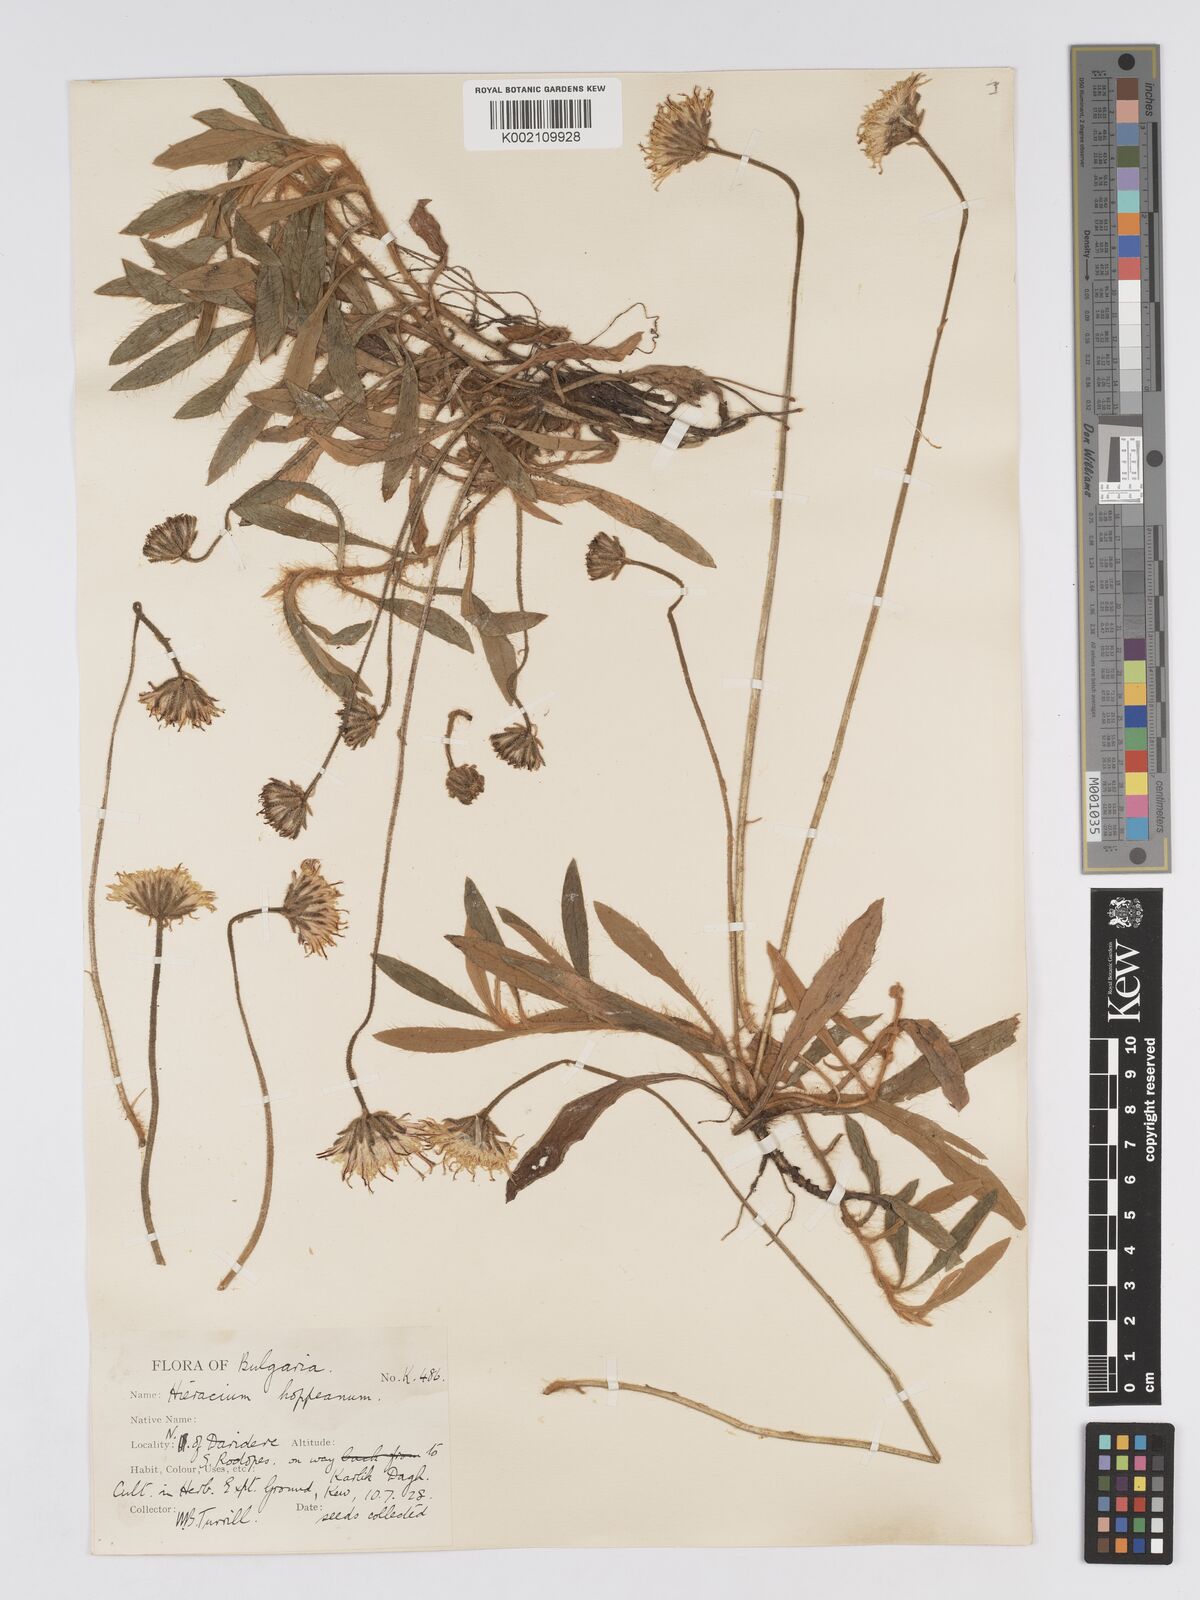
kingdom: Plantae
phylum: Tracheophyta
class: Magnoliopsida
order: Asterales
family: Asteraceae
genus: Pilosella
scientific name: Pilosella hoppeana
